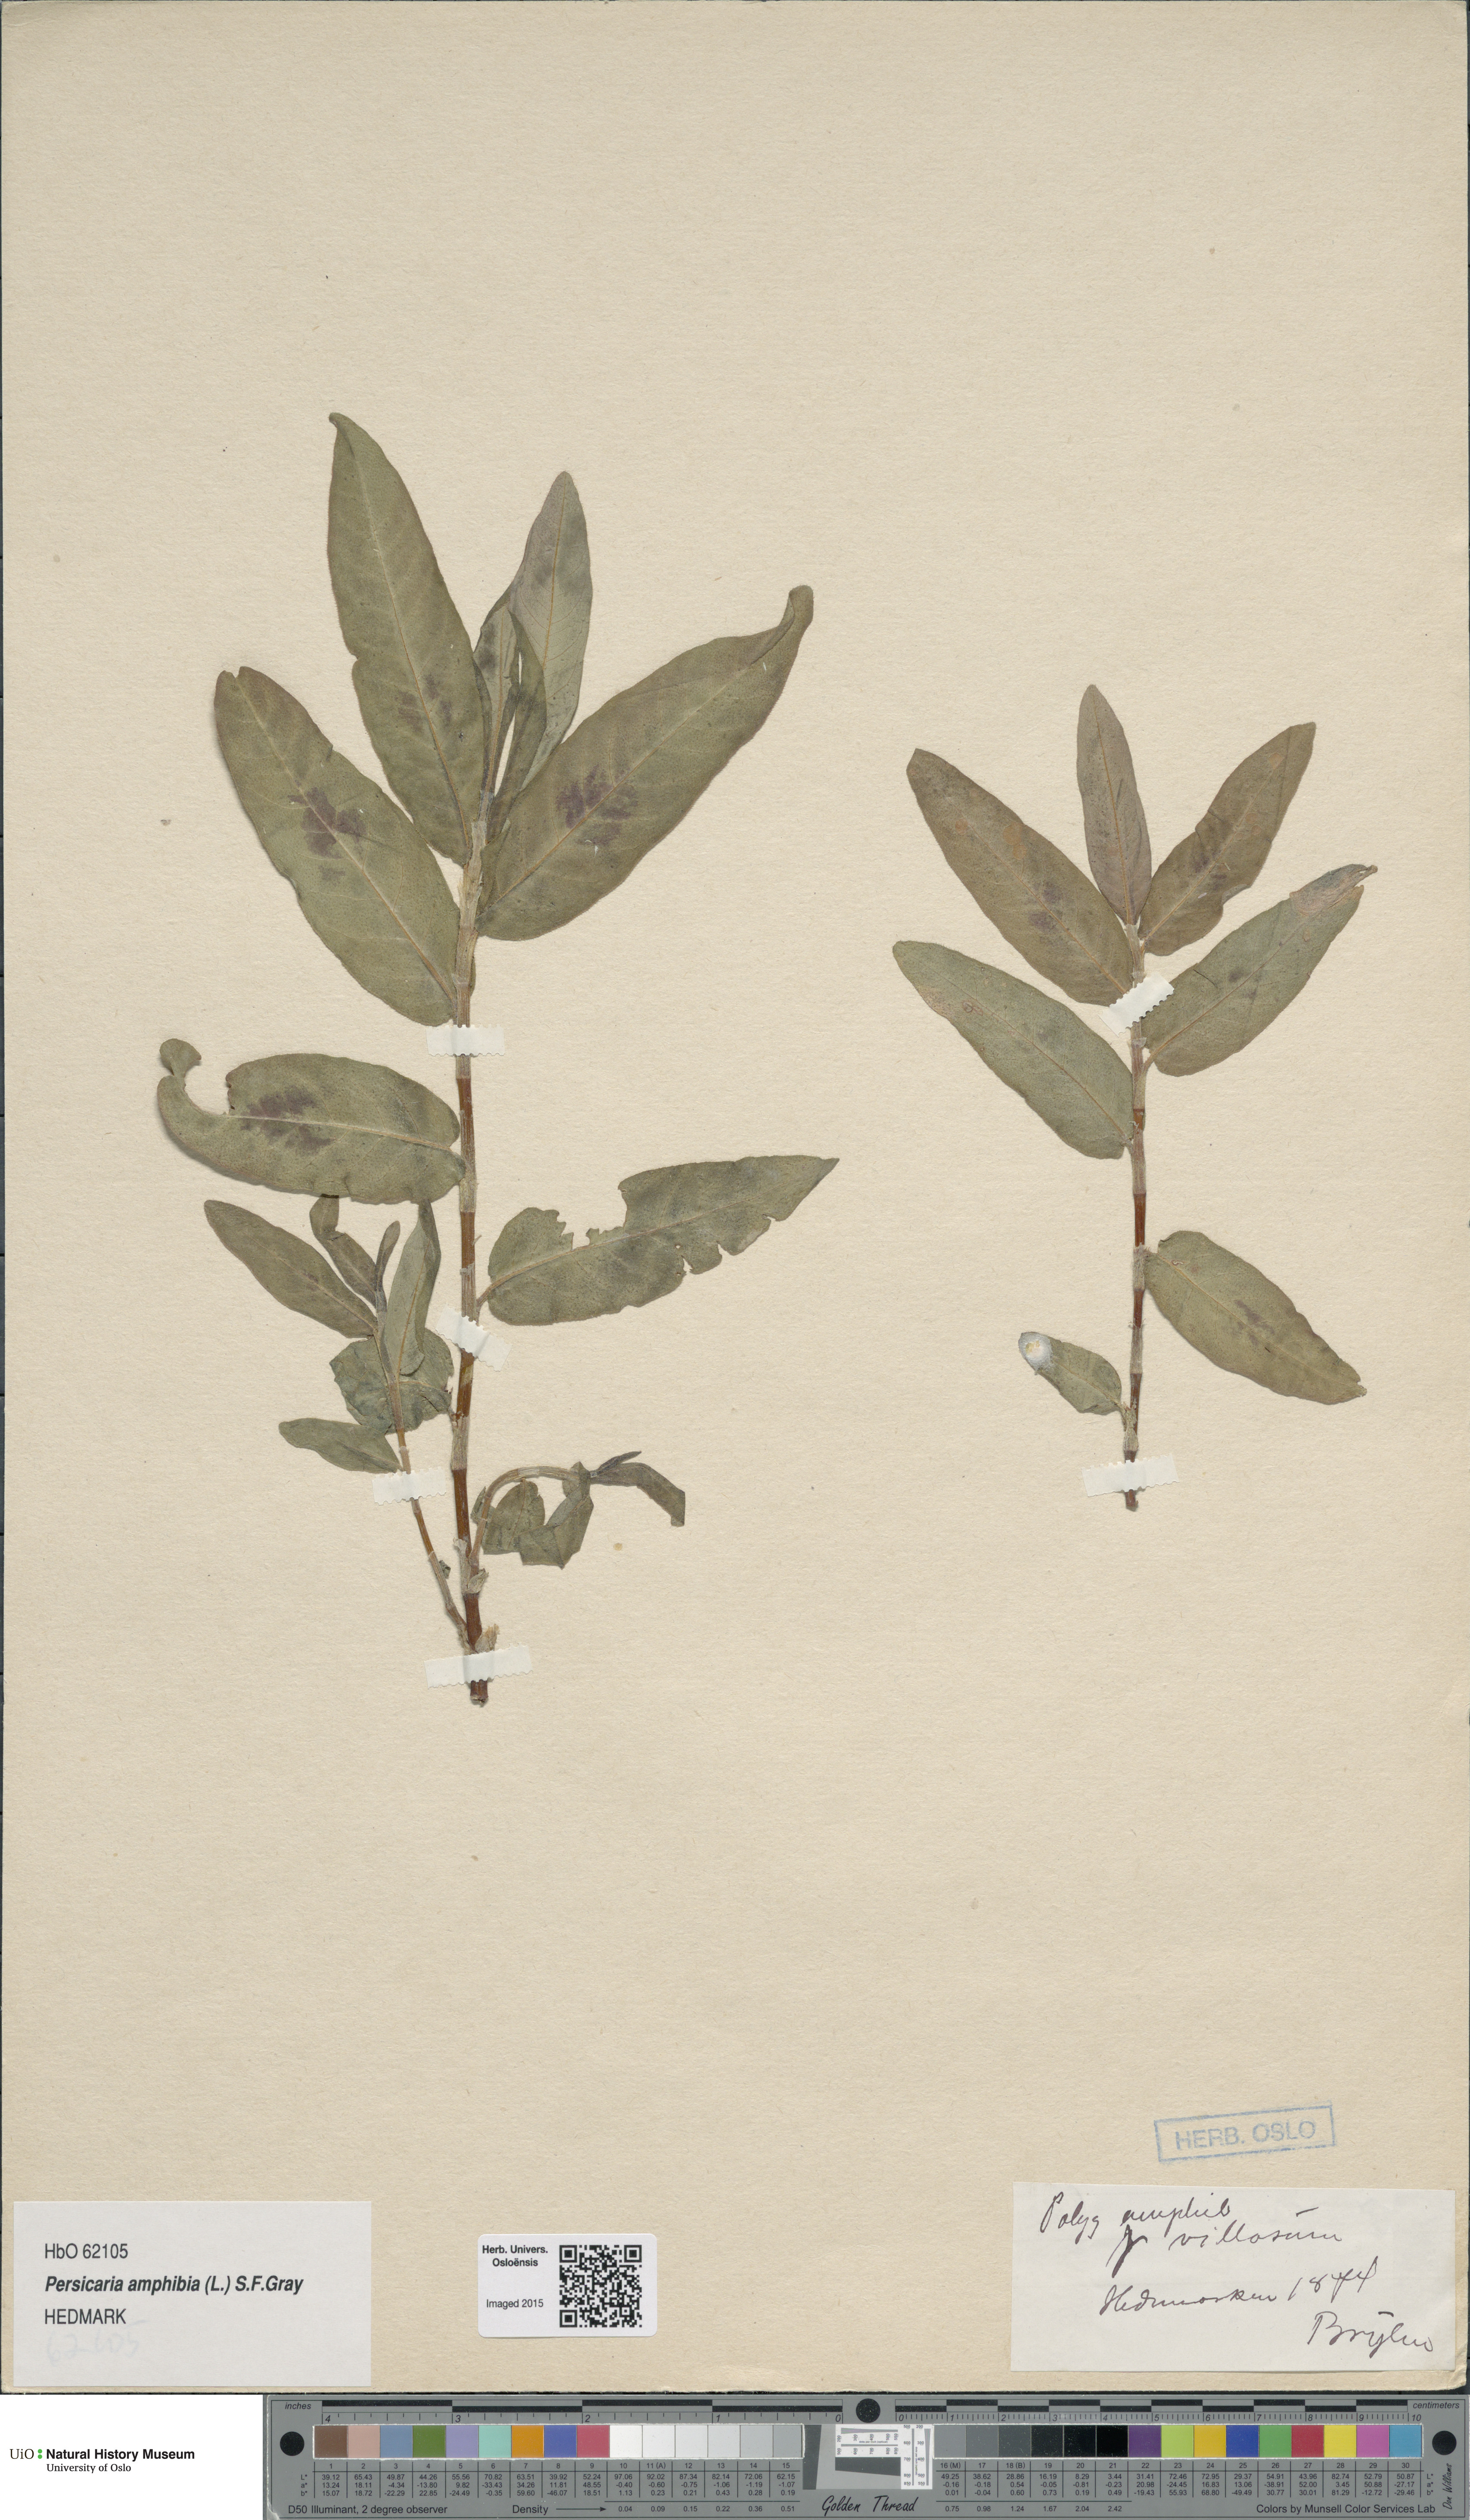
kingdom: Plantae
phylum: Tracheophyta
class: Magnoliopsida
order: Caryophyllales
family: Polygonaceae
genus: Persicaria
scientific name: Persicaria amphibia
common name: Amphibious bistort
